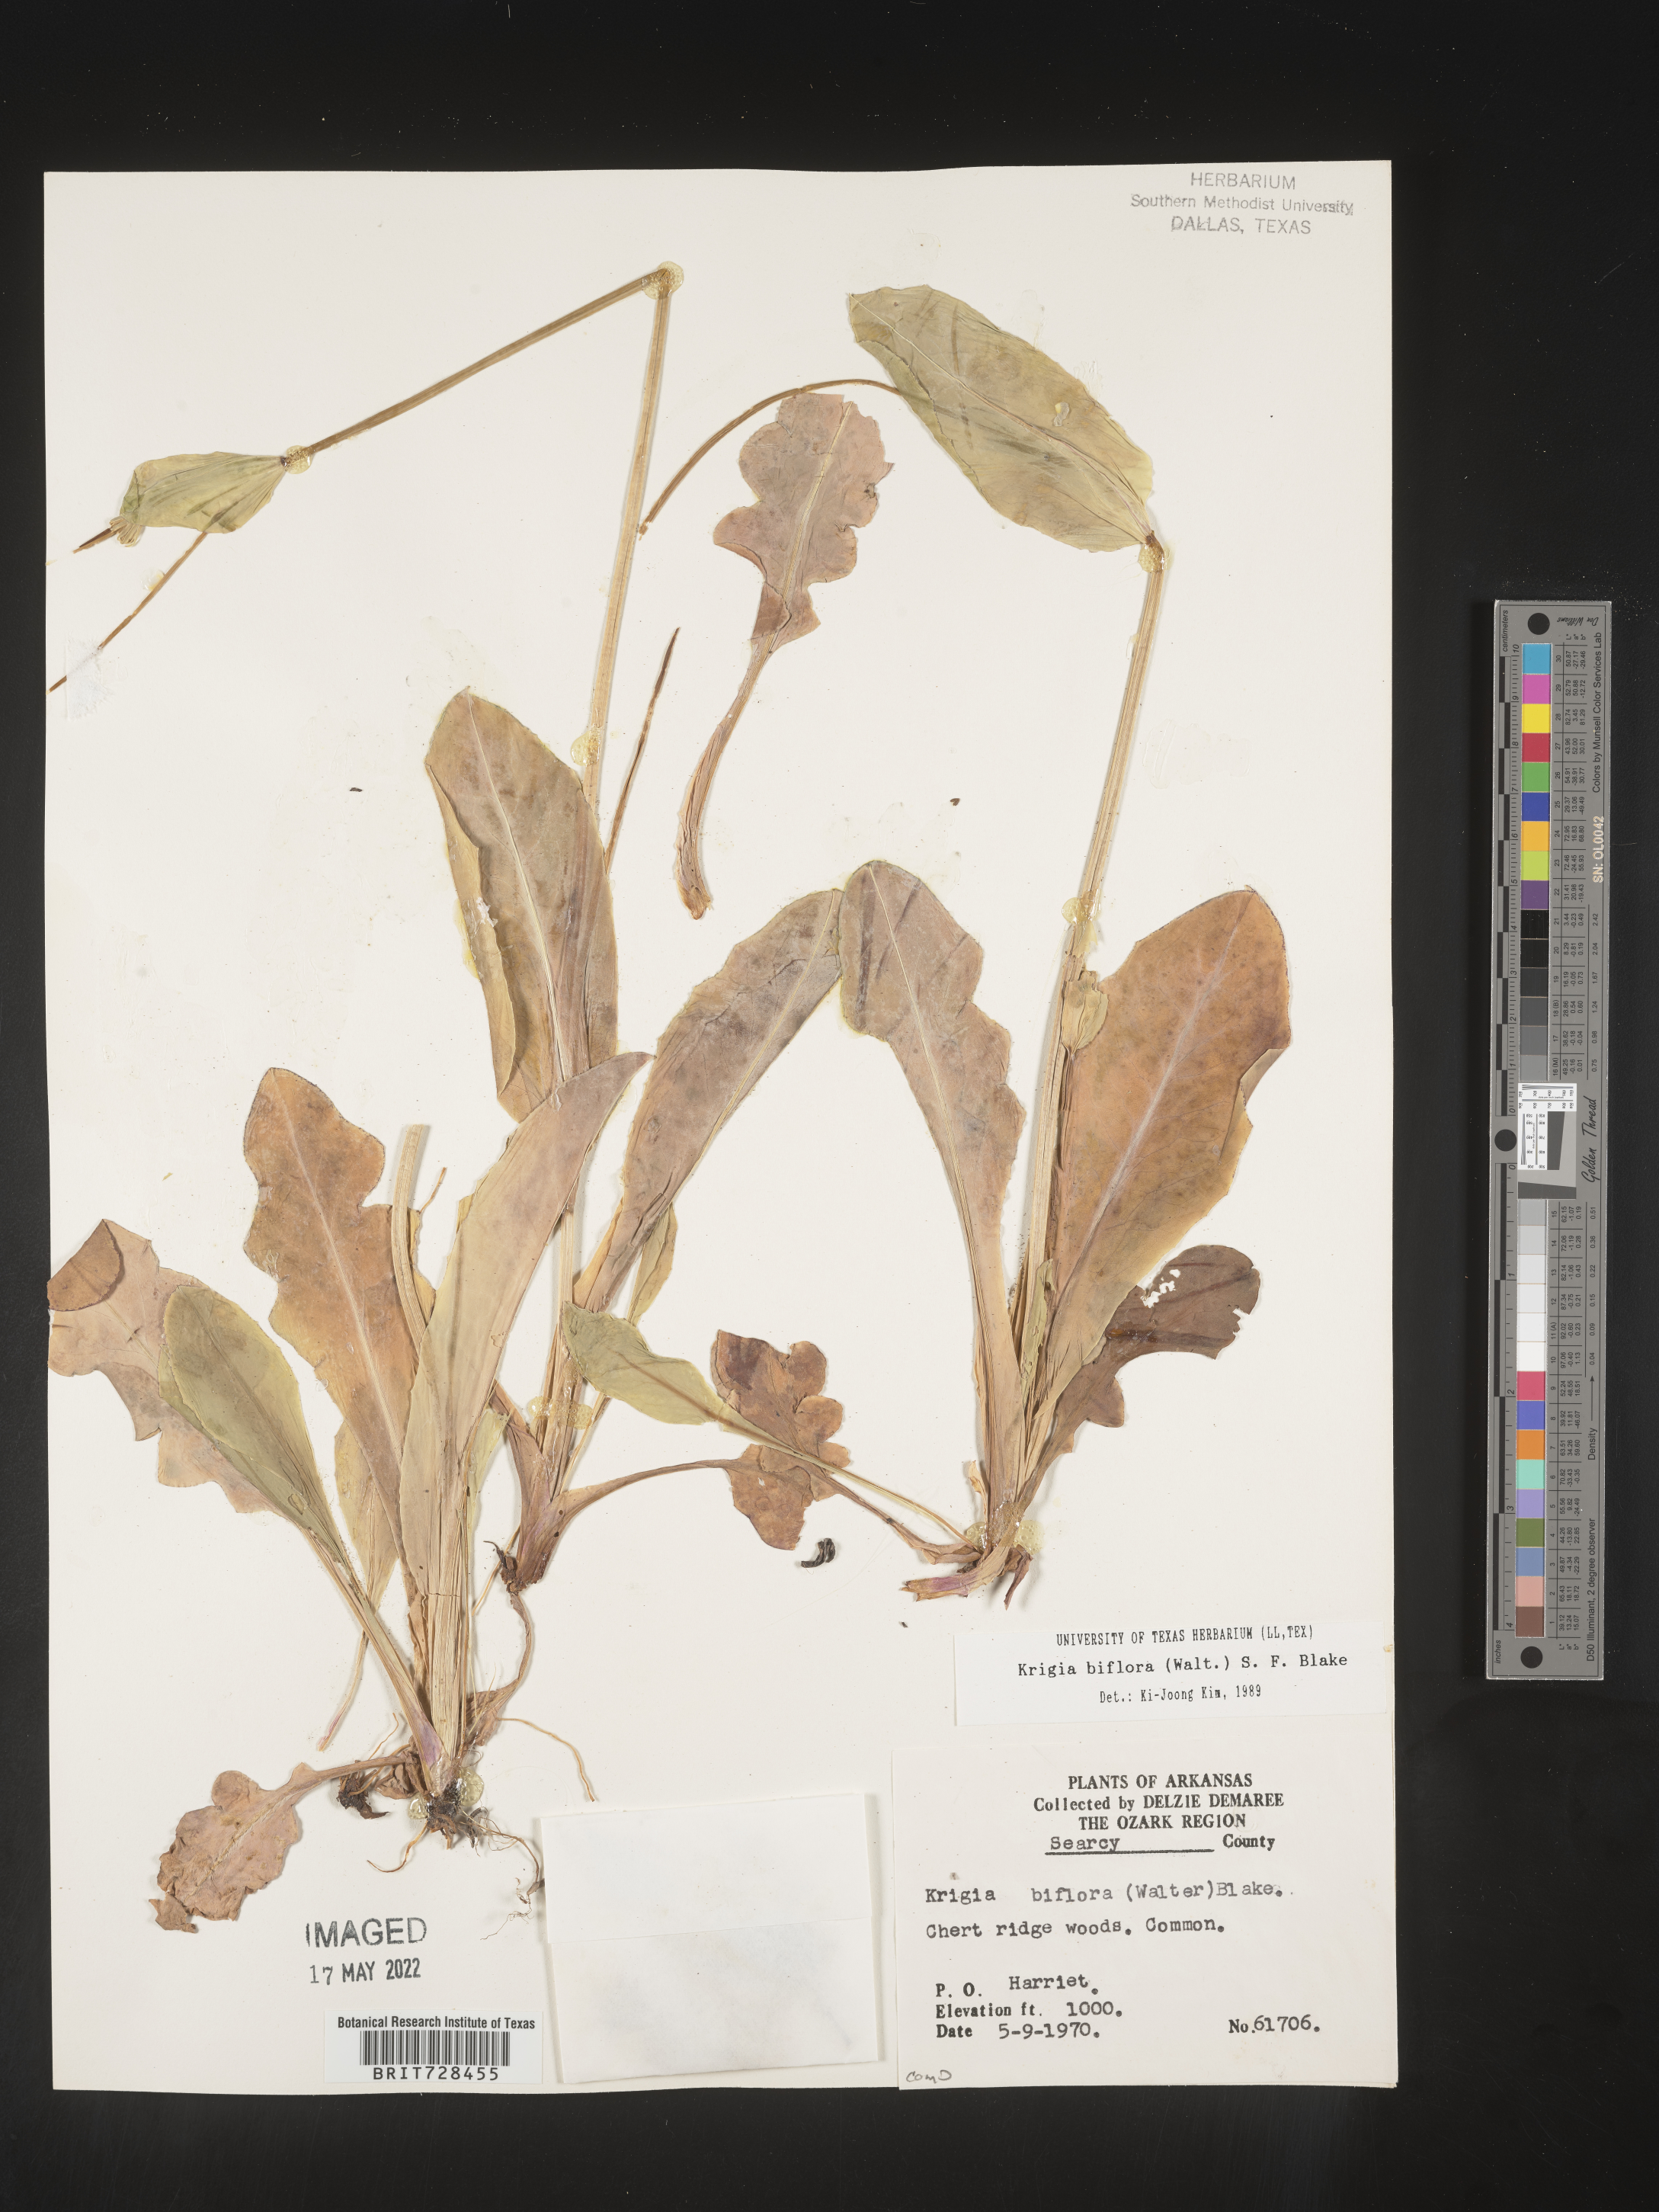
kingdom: Plantae
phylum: Tracheophyta
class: Magnoliopsida
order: Asterales
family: Asteraceae
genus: Krigia
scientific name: Krigia biflora
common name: Orange dwarf-dandelion
